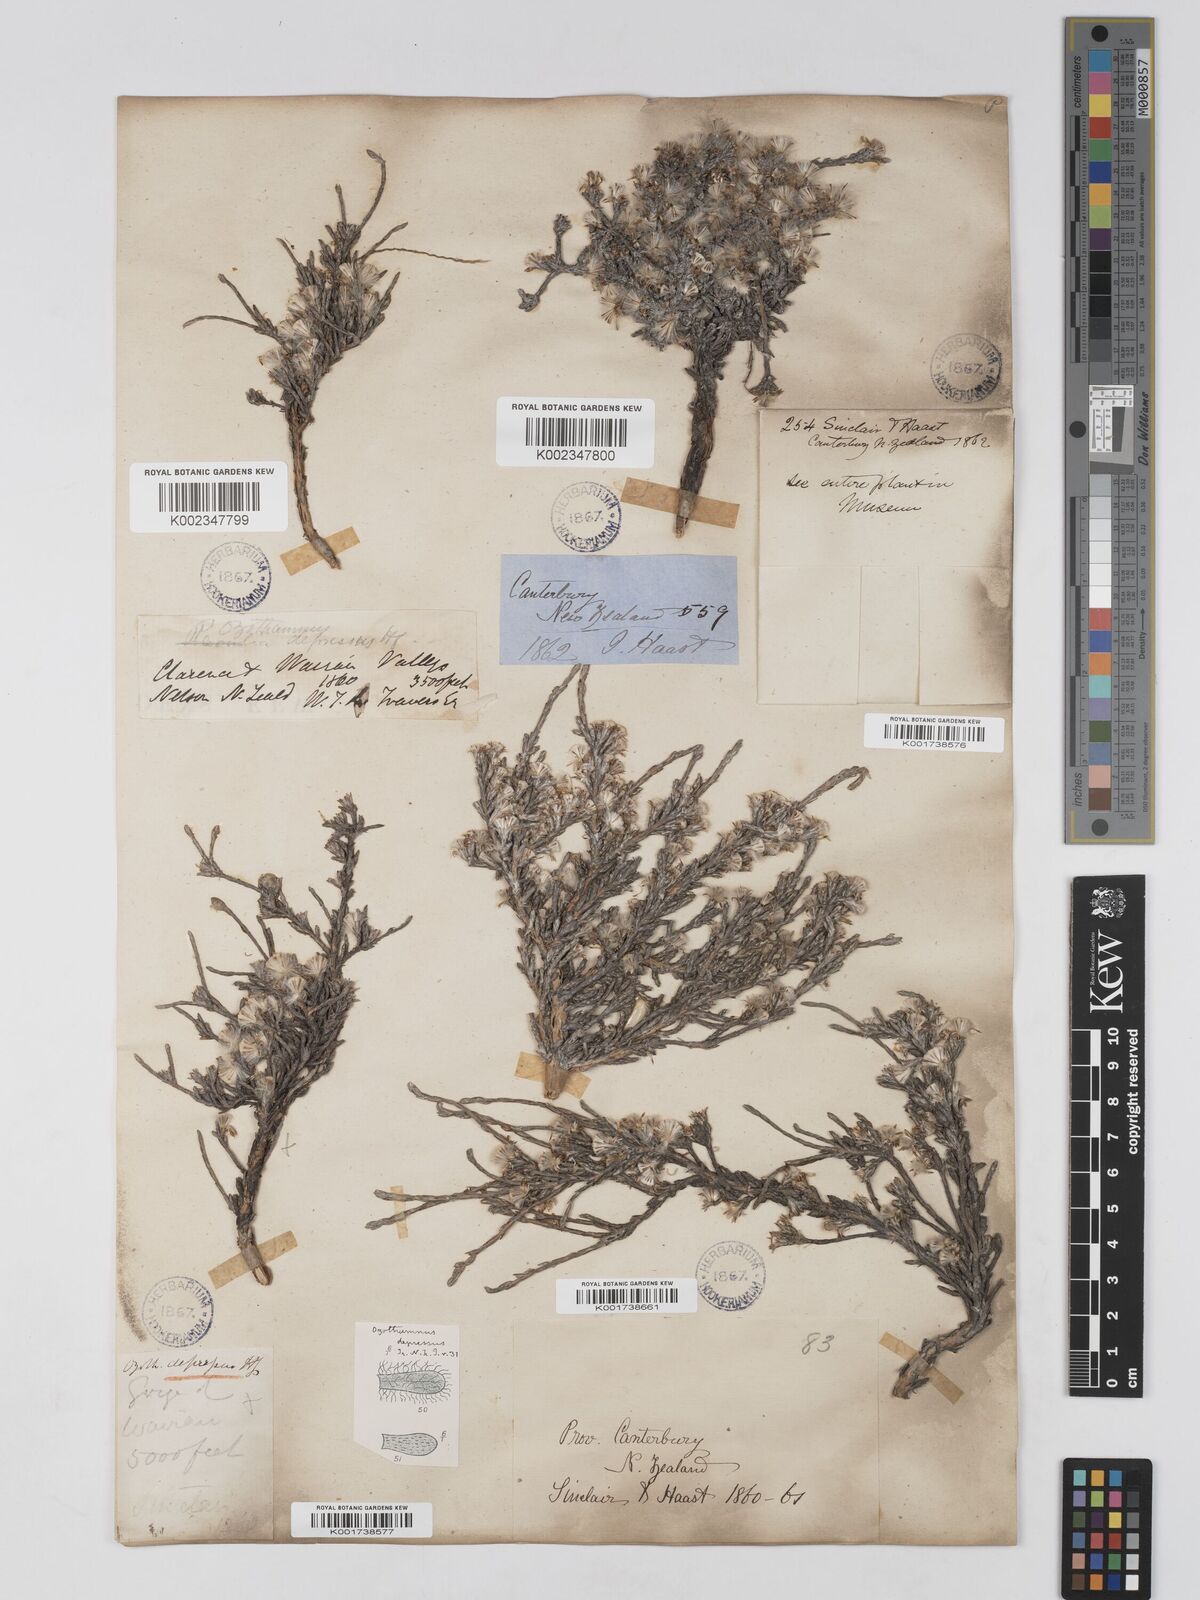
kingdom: Plantae
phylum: Tracheophyta
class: Magnoliopsida
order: Asterales
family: Asteraceae
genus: Ozothamnus
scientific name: Ozothamnus depressus
